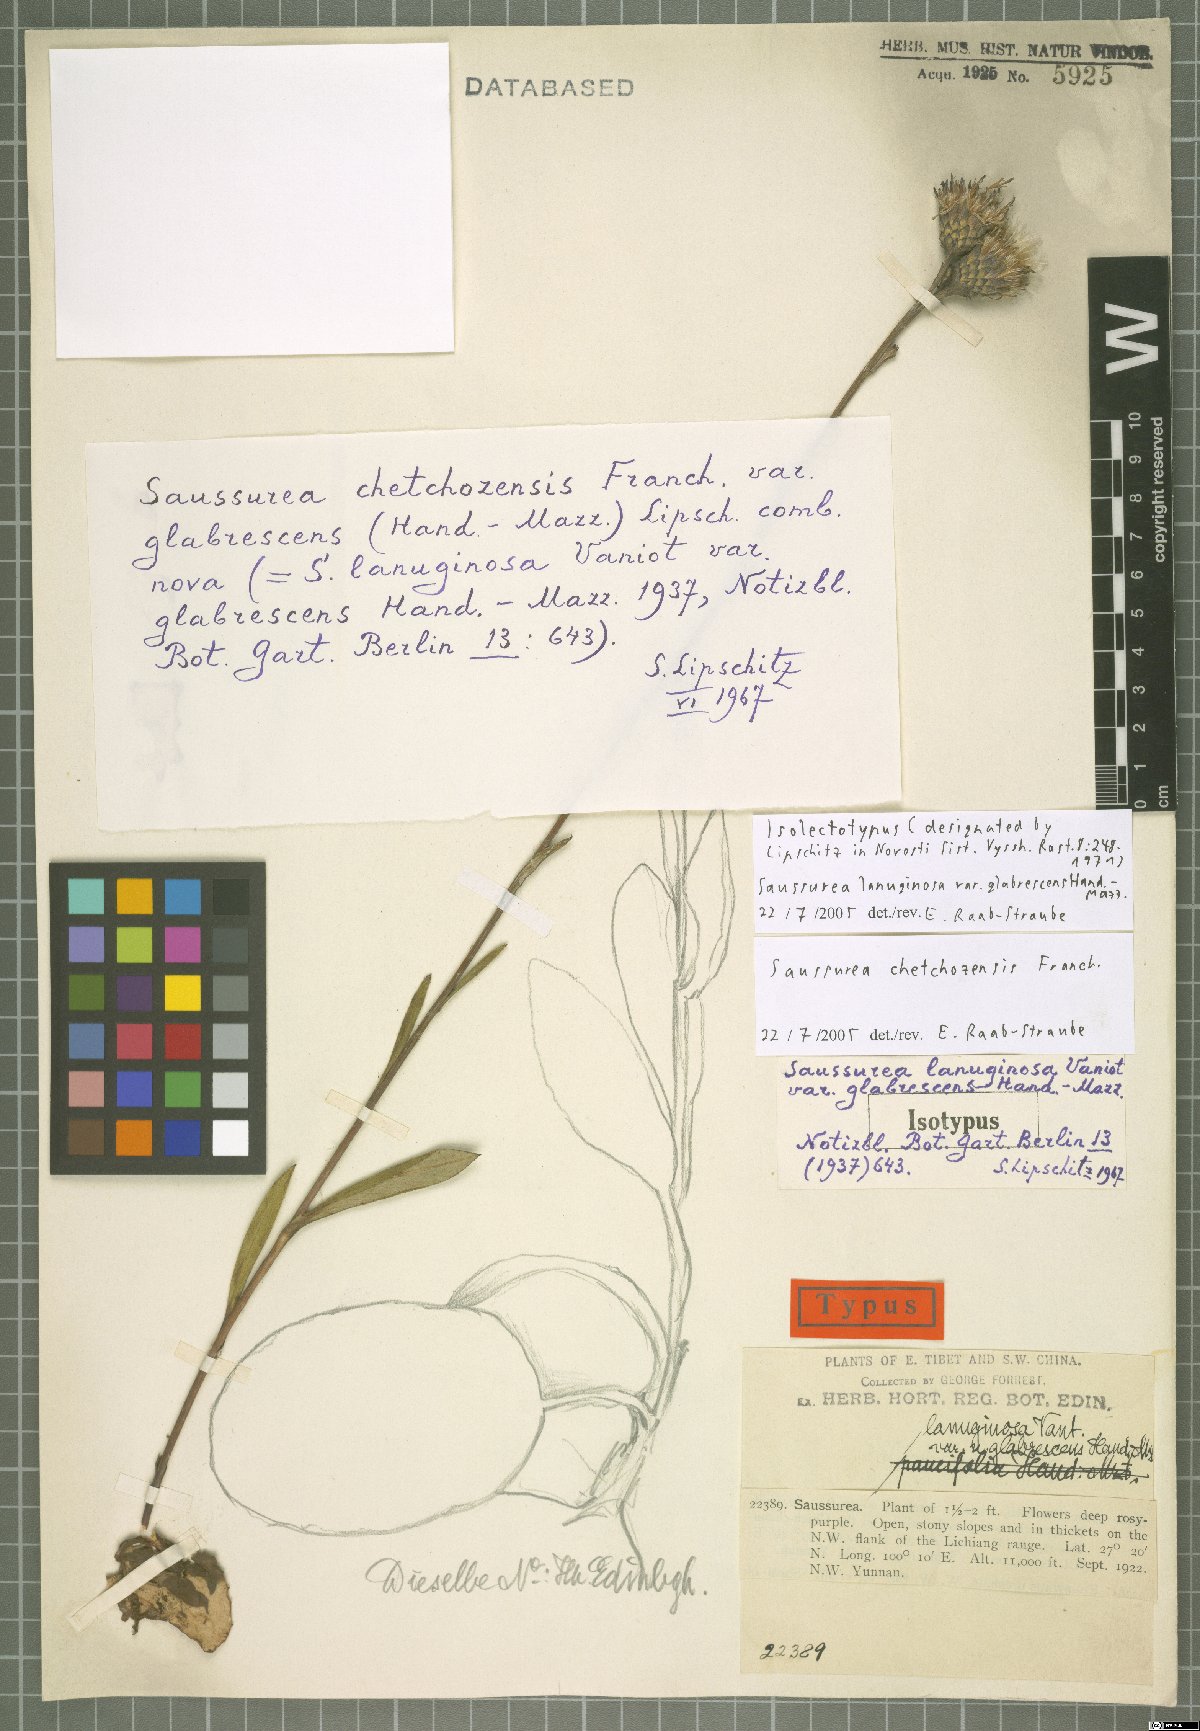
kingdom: Plantae
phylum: Tracheophyta
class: Magnoliopsida
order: Asterales
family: Asteraceae
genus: Saussurea
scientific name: Saussurea chetchozensis
